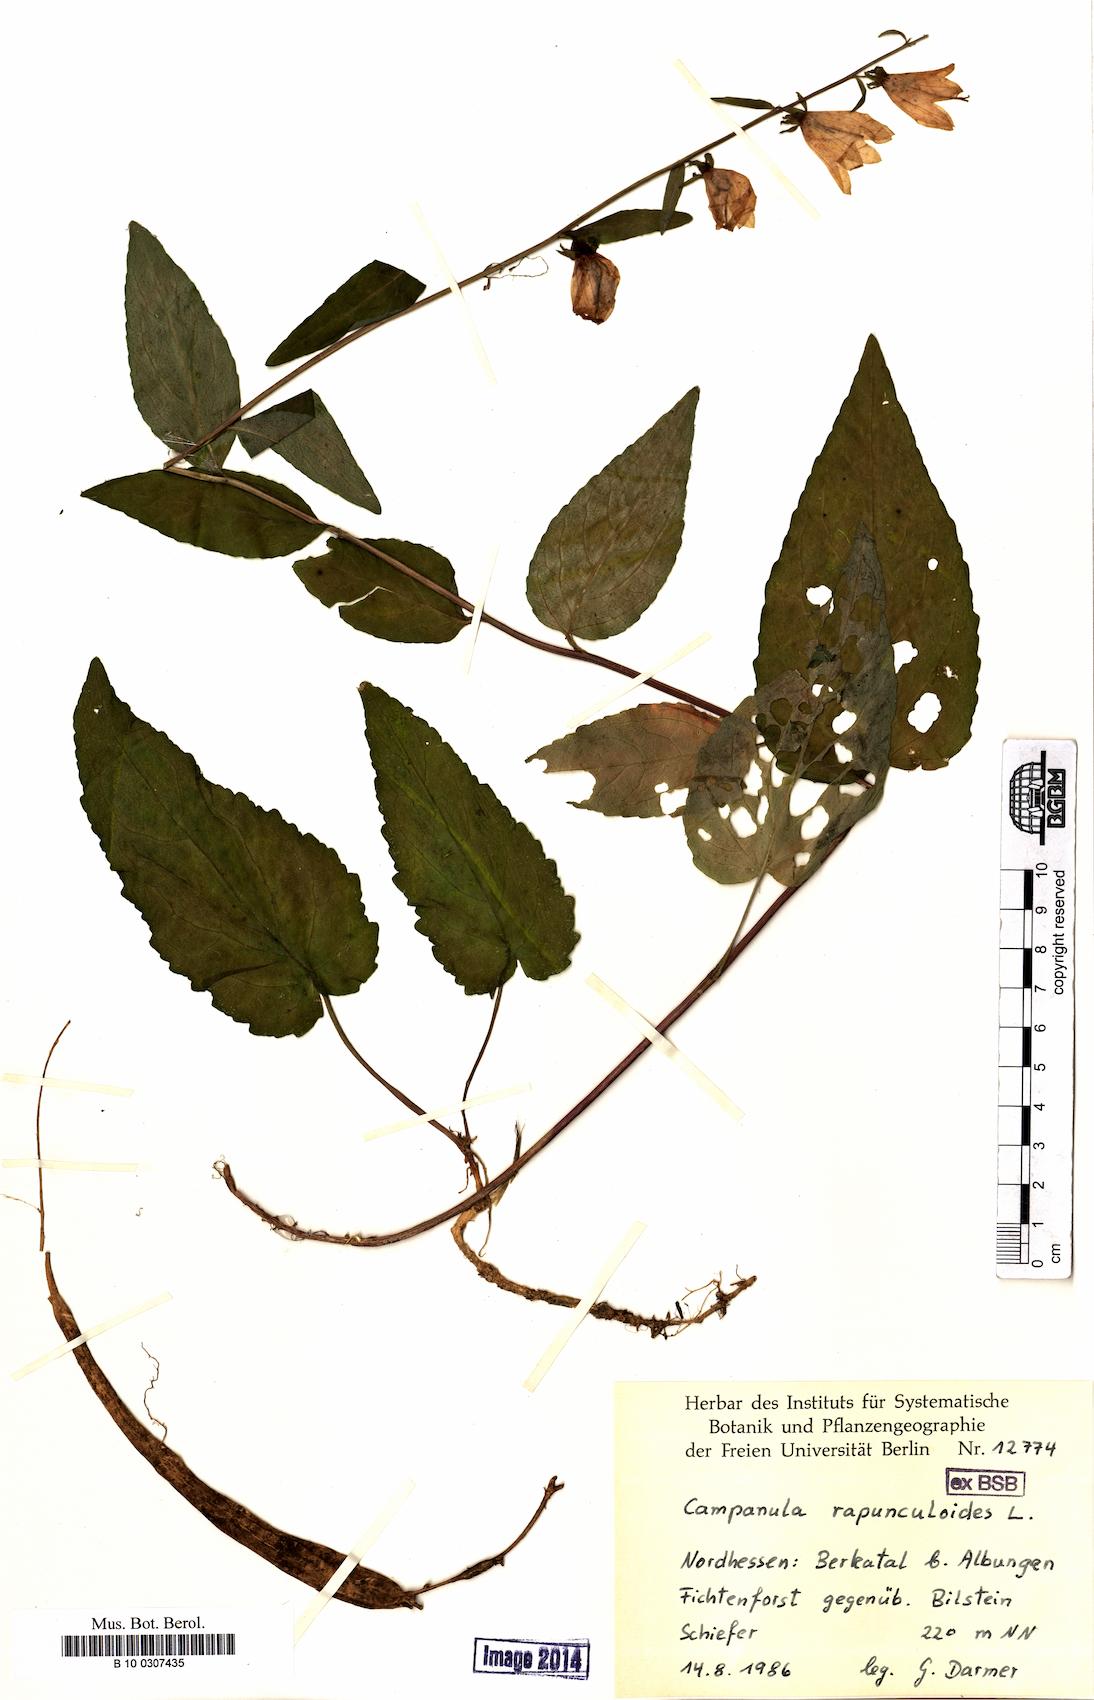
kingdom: Plantae
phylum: Tracheophyta
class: Magnoliopsida
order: Asterales
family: Campanulaceae
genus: Campanula
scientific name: Campanula rapunculoides
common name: Creeping bellflower
